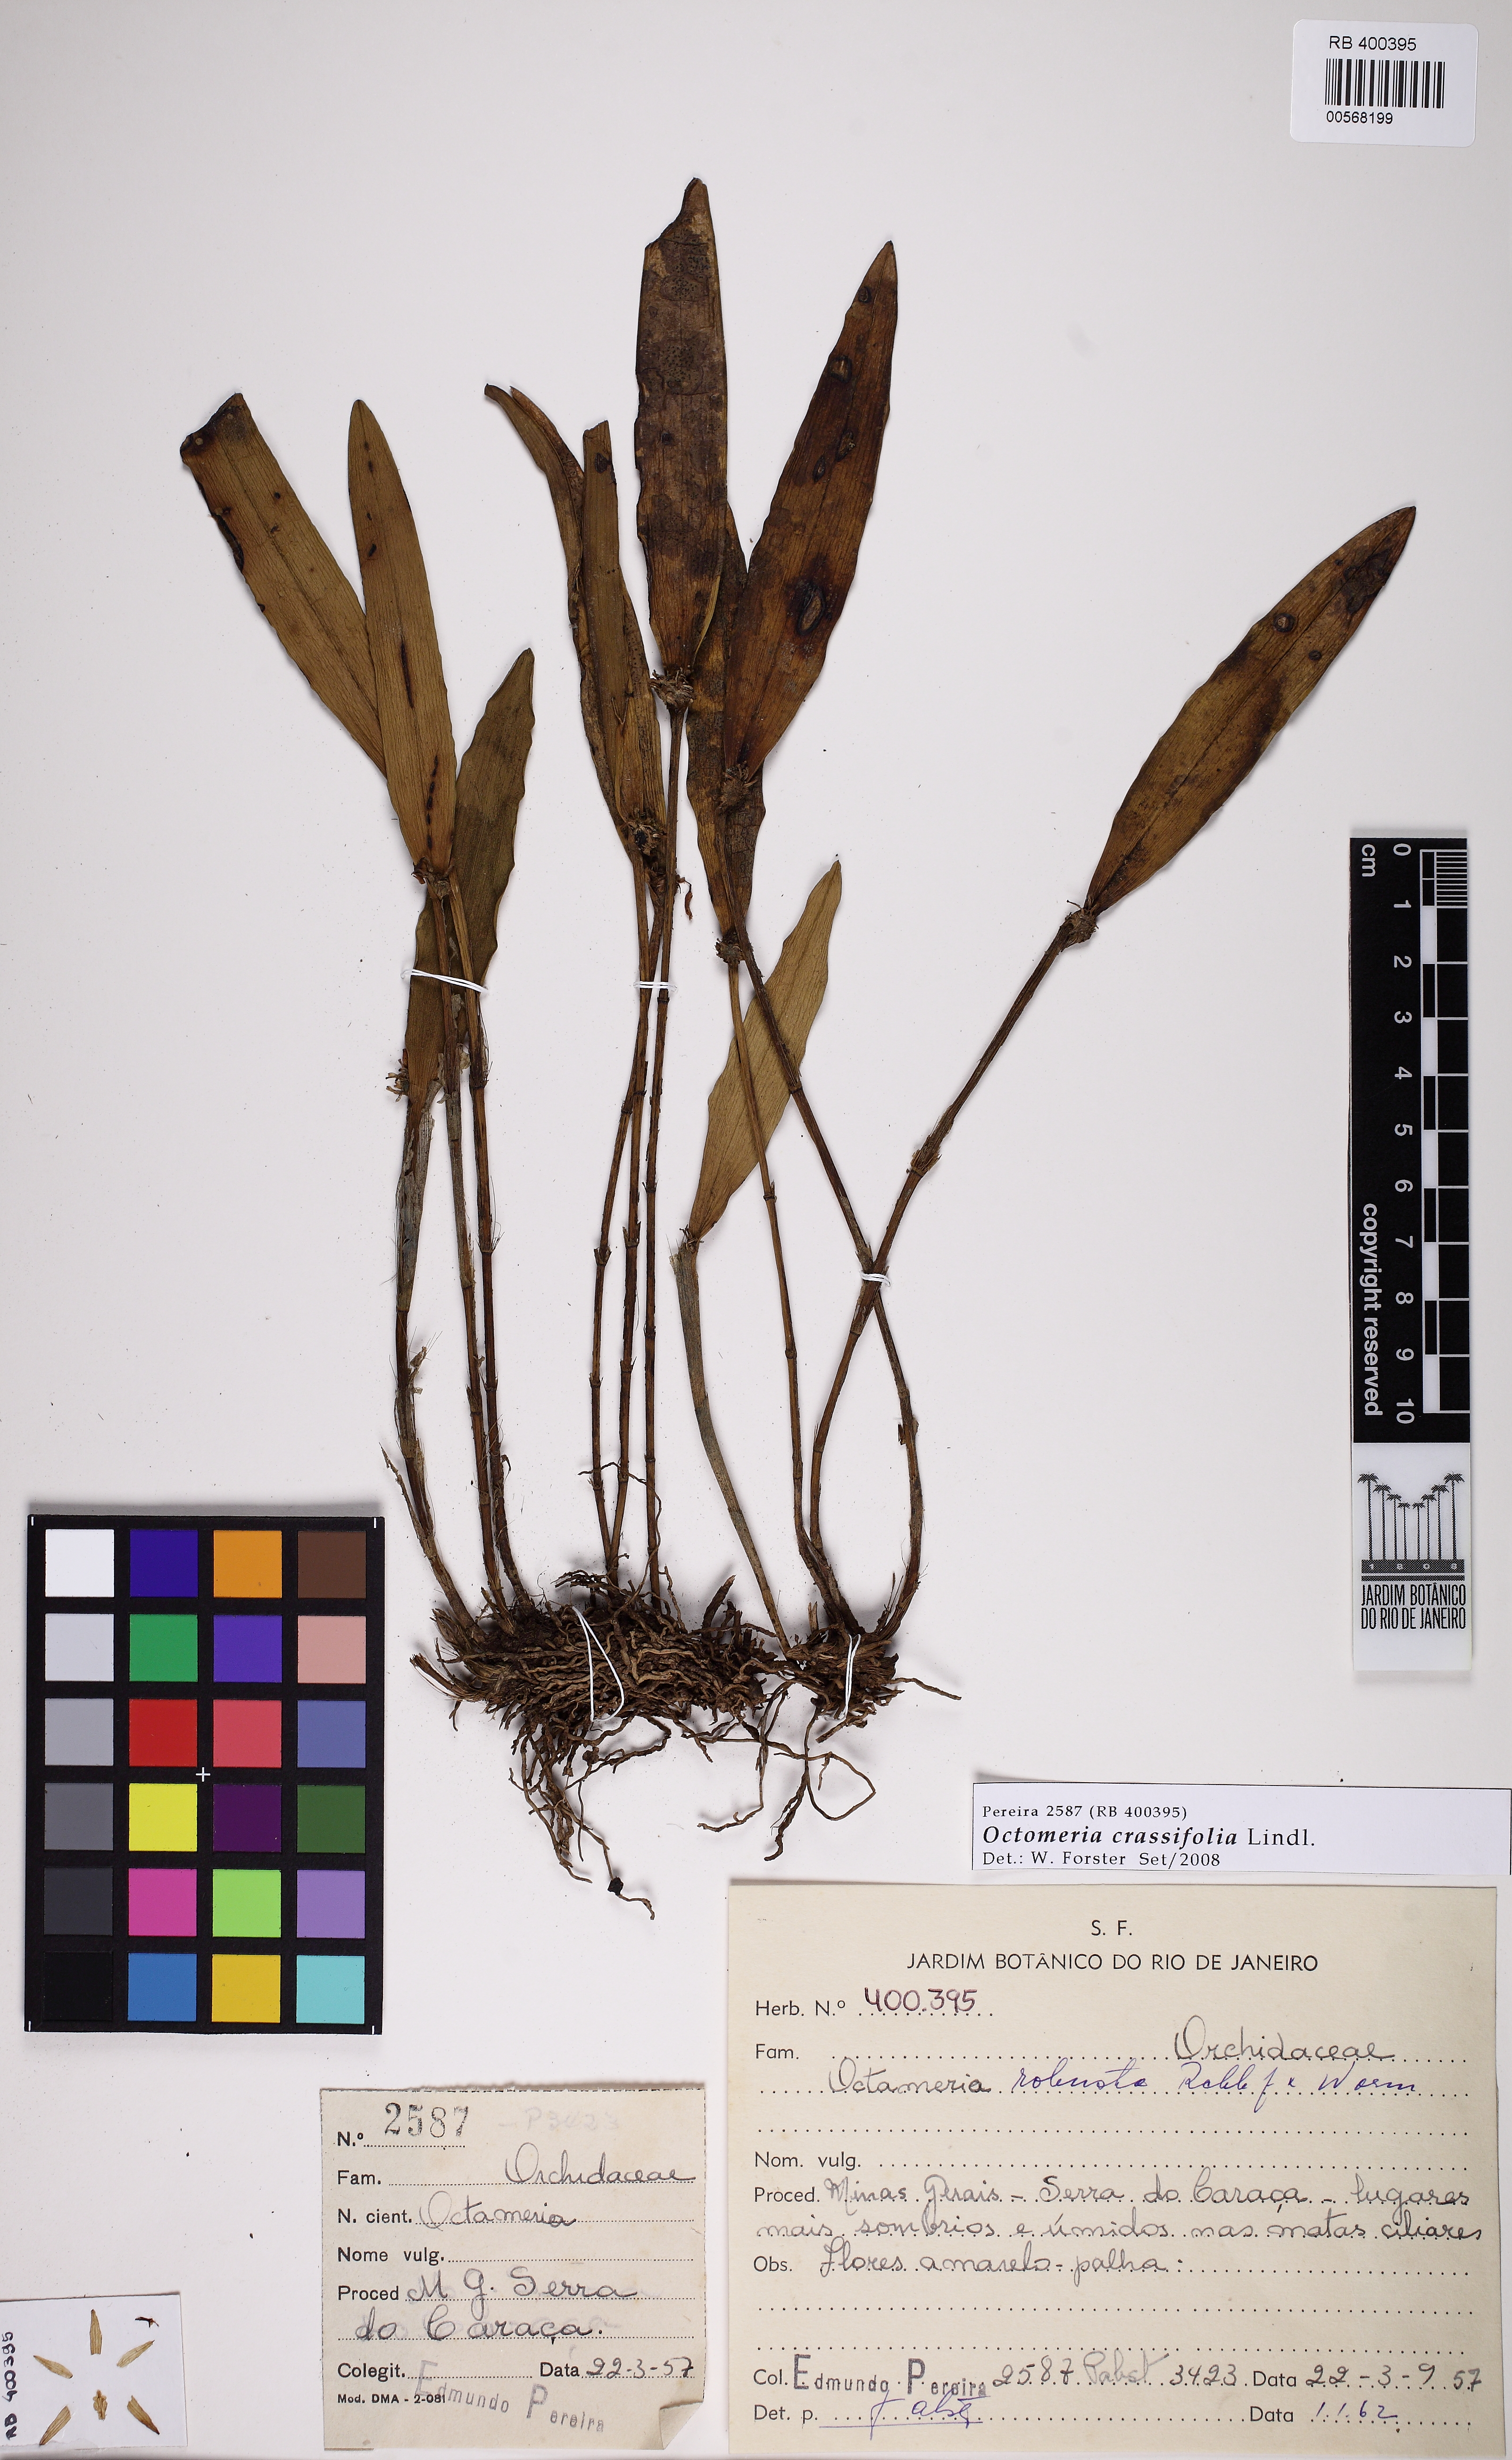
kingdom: Plantae
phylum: Tracheophyta
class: Liliopsida
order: Asparagales
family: Orchidaceae
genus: Octomeria
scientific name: Octomeria crassifolia
